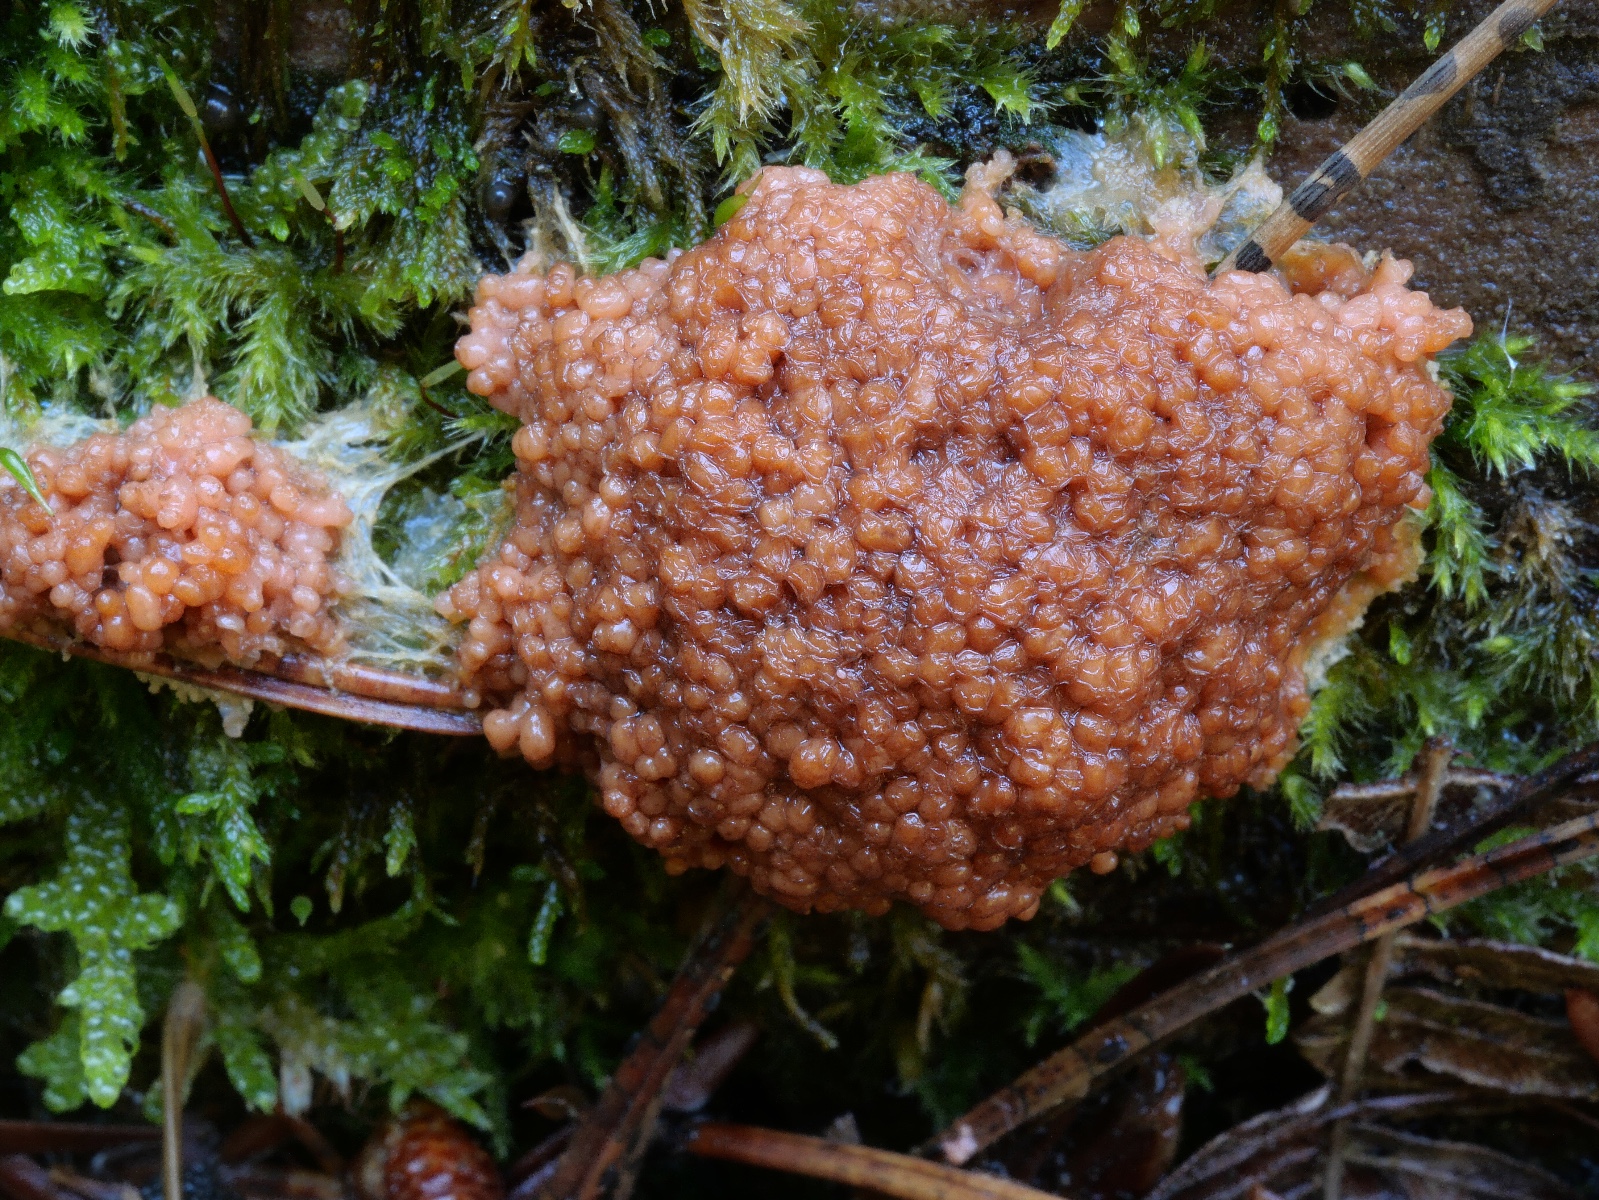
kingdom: Protozoa
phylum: Mycetozoa
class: Myxomycetes
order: Cribrariales
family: Tubiferaceae
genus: Thecotubifera
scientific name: Thecotubifera dictyoderma
